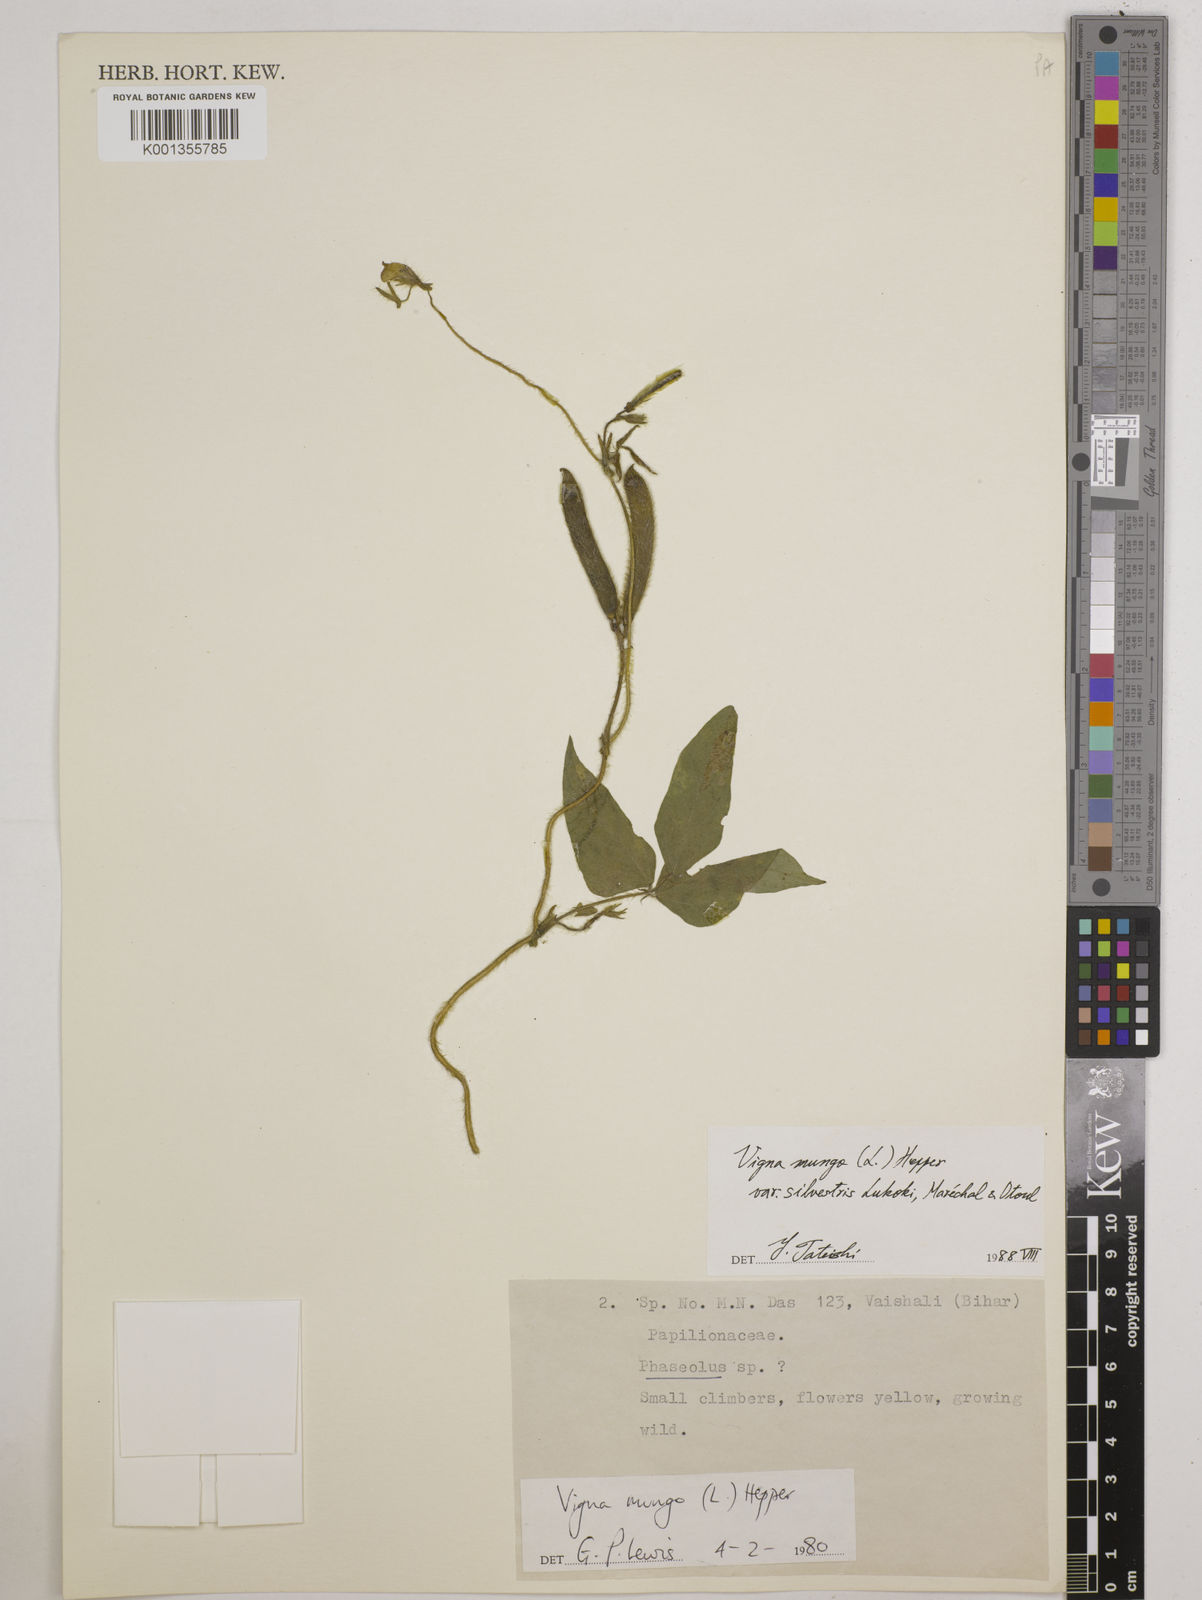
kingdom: Plantae
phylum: Tracheophyta
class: Magnoliopsida
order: Fabales
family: Fabaceae
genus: Vigna
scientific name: Vigna mungo
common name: Black gram
